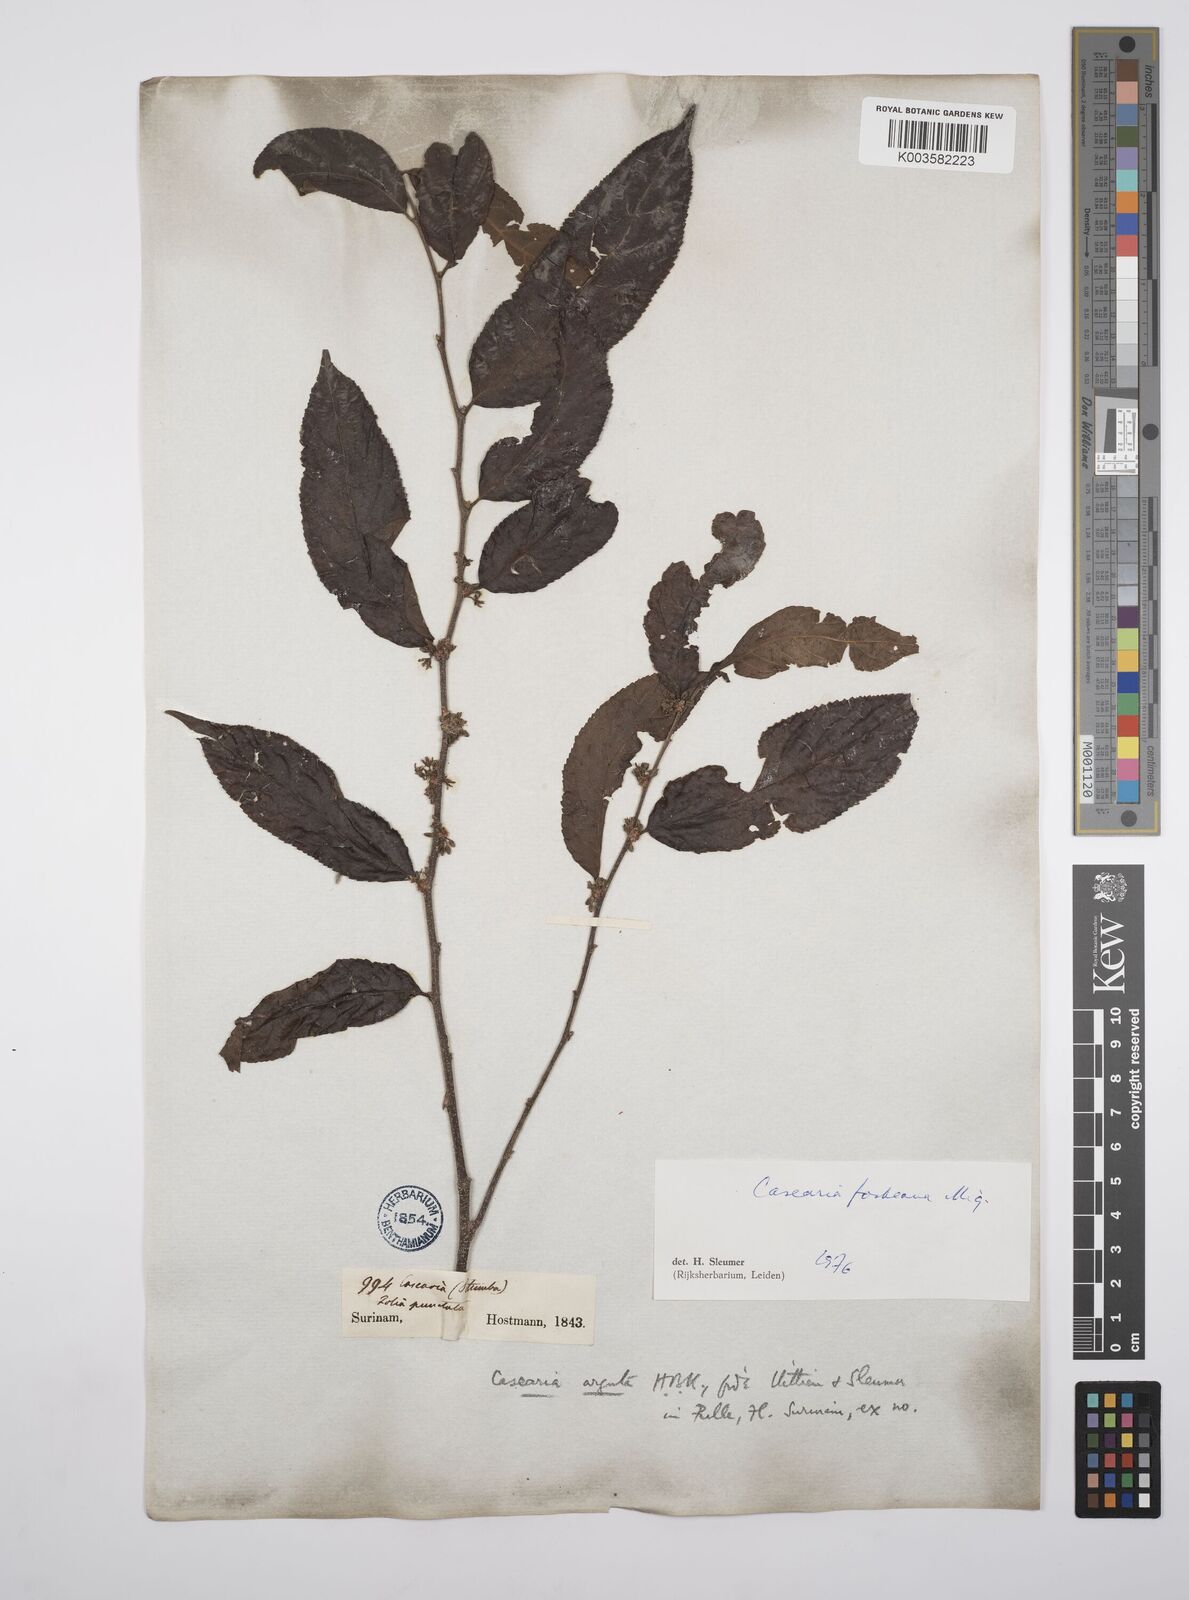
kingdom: Plantae
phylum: Tracheophyta
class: Magnoliopsida
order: Malpighiales
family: Salicaceae
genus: Casearia
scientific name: Casearia mariquitensis
